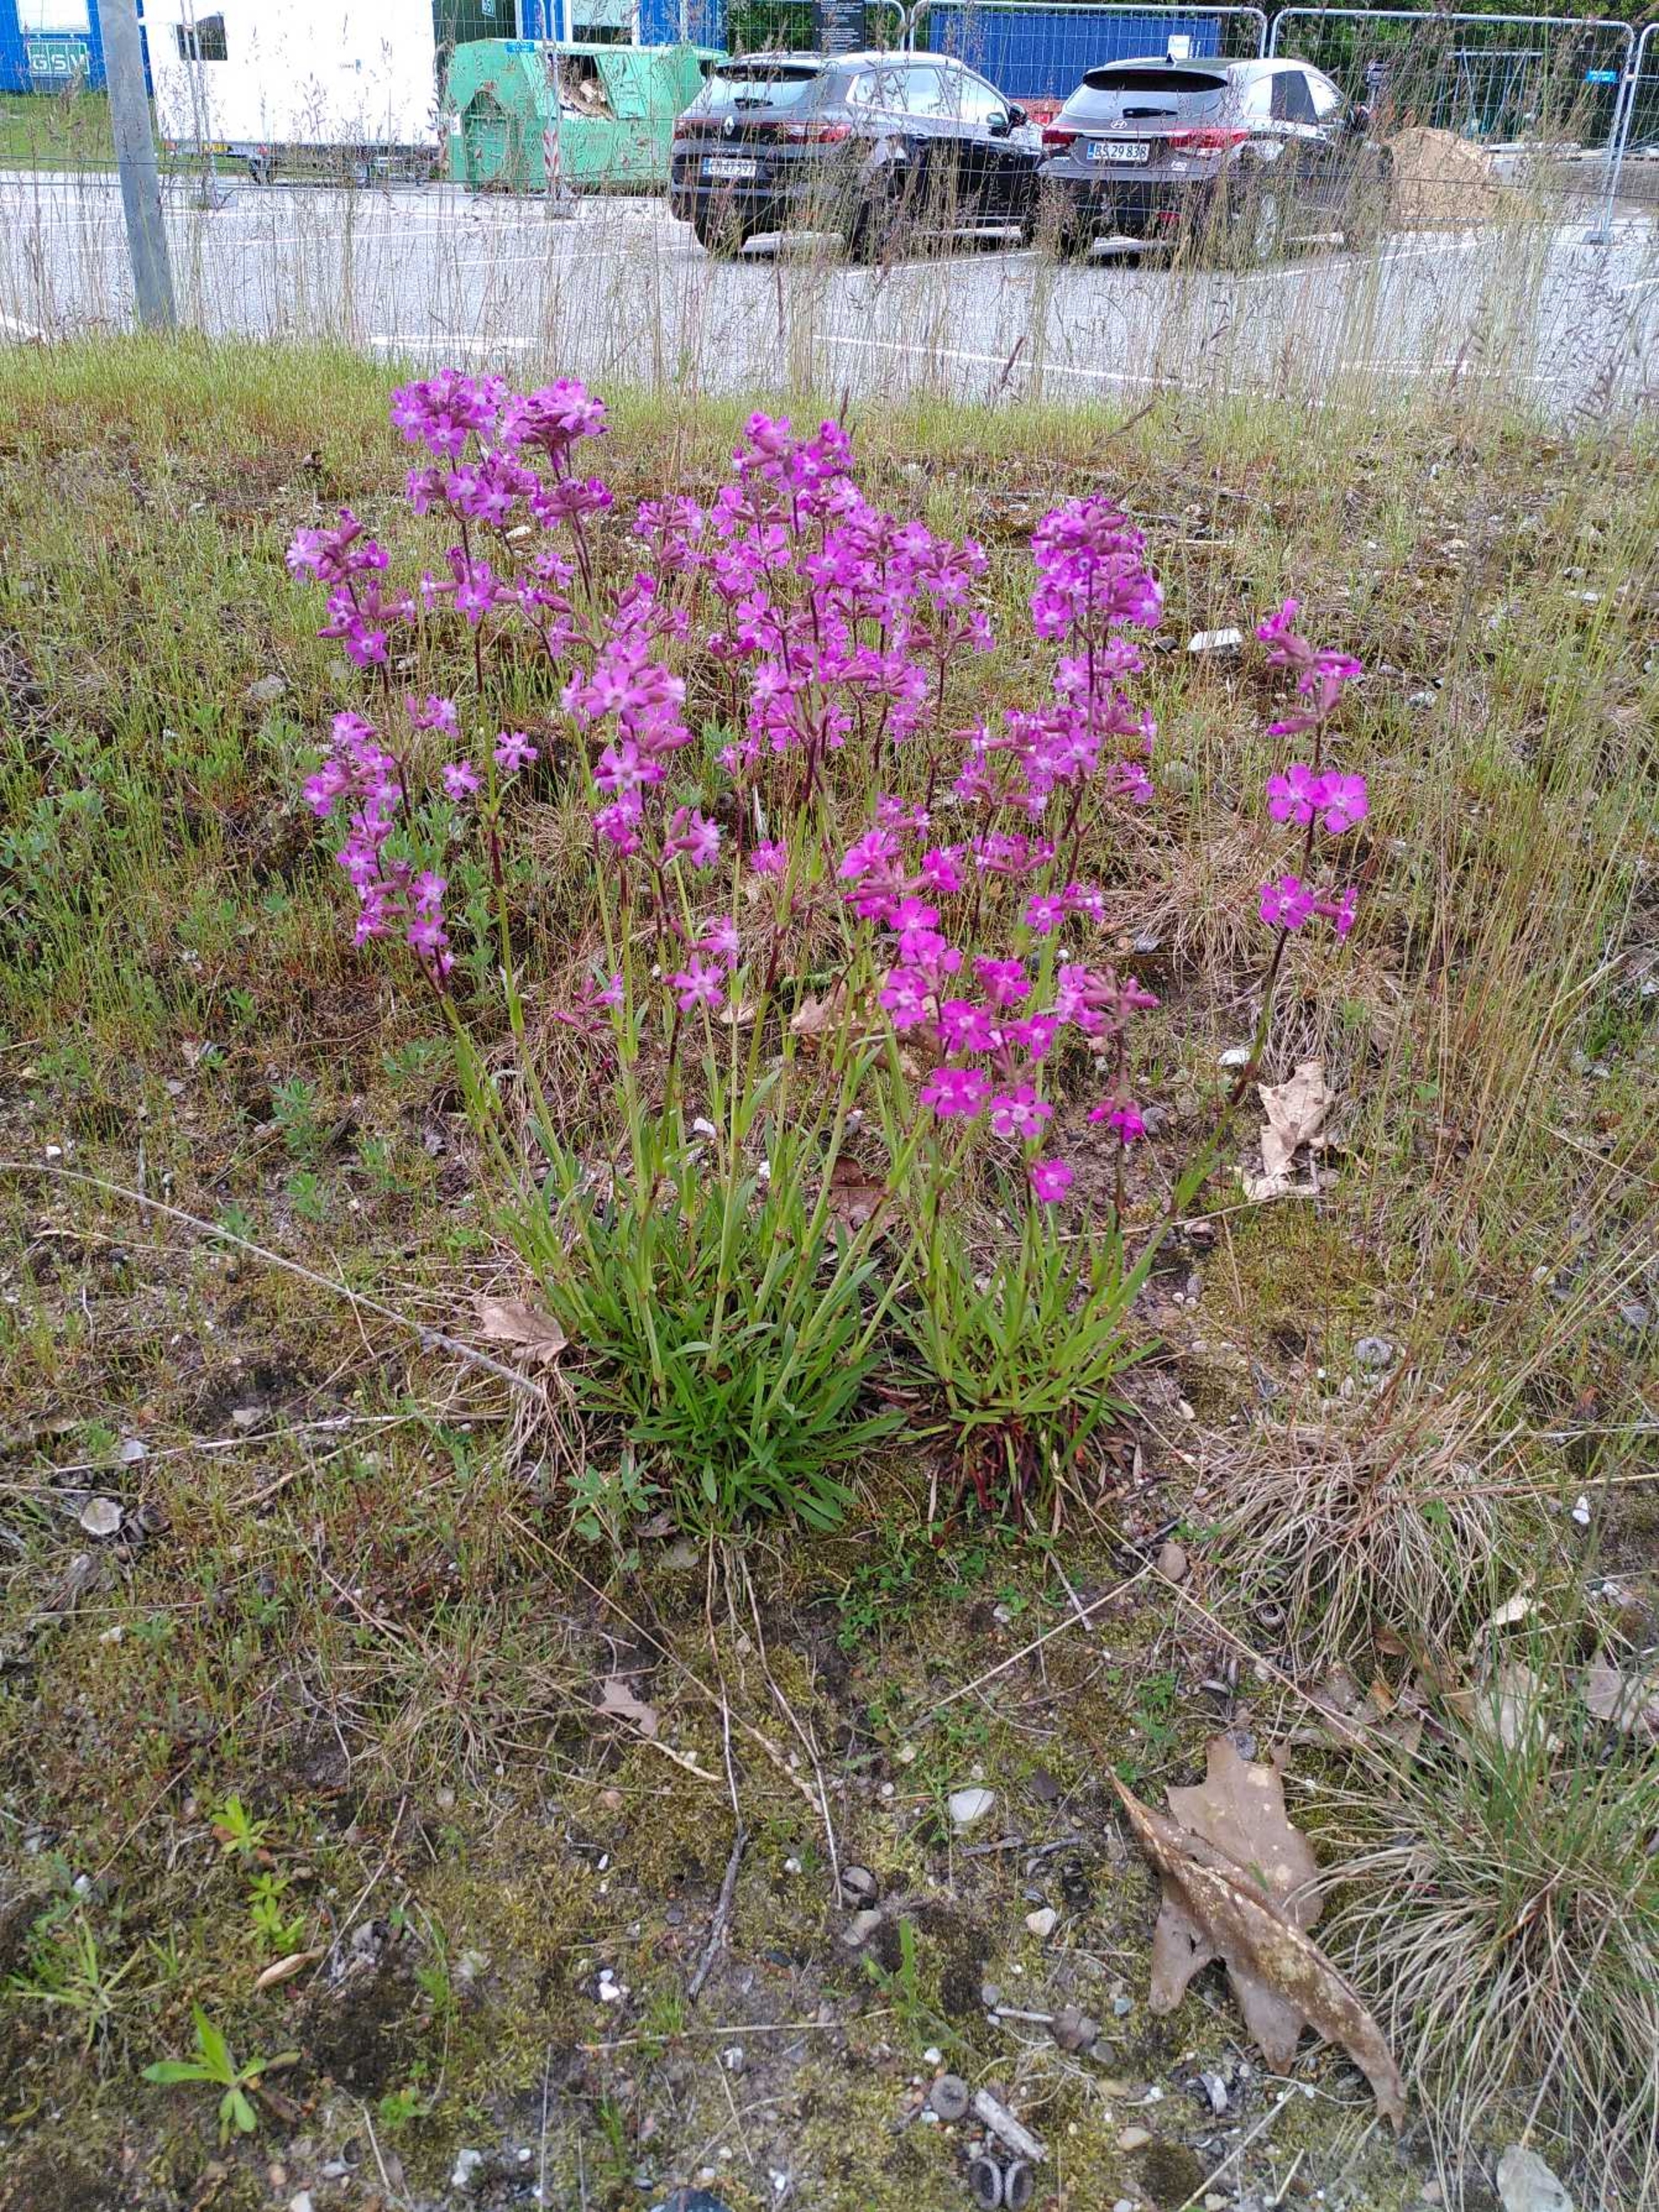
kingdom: Plantae
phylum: Tracheophyta
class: Magnoliopsida
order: Caryophyllales
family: Caryophyllaceae
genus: Viscaria
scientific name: Viscaria vulgaris
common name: Tjærenellike
